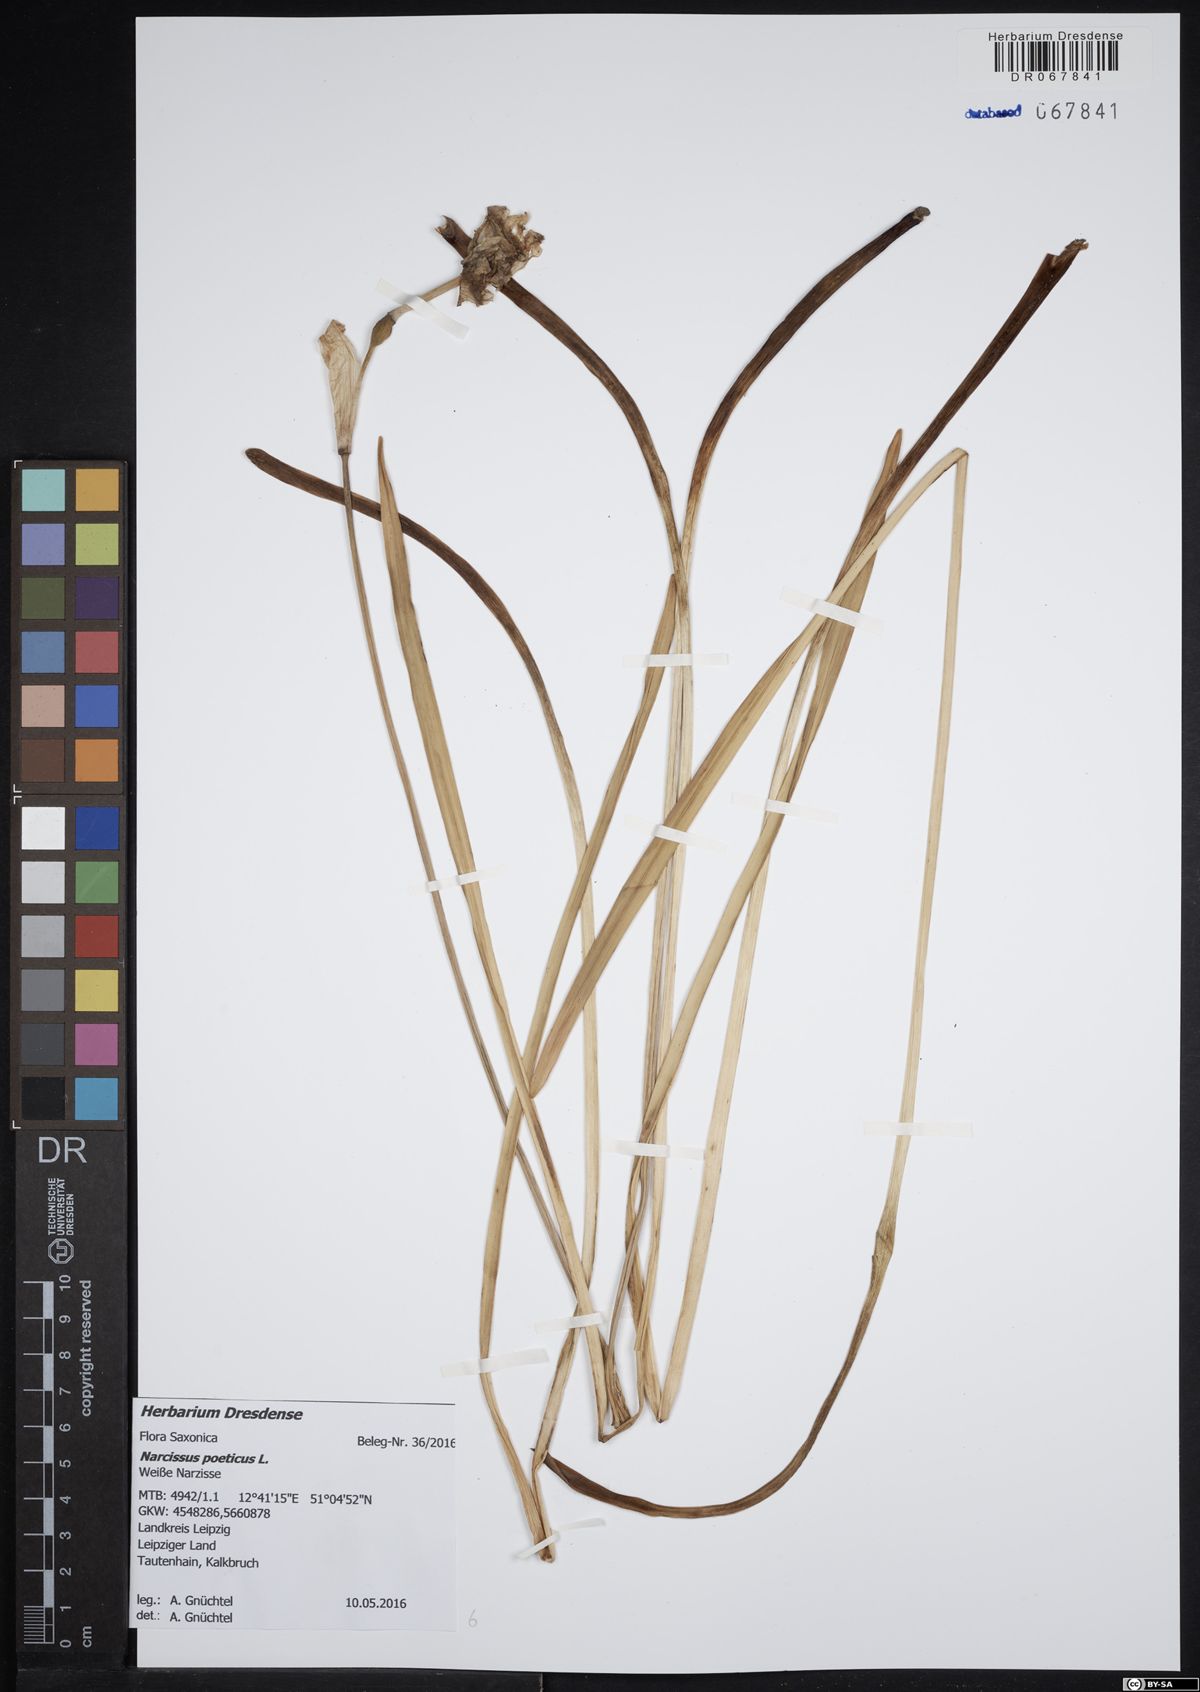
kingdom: Plantae
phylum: Tracheophyta
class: Liliopsida
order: Asparagales
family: Amaryllidaceae
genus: Narcissus
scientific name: Narcissus poeticus
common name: Pheasant's-eye daffodil
